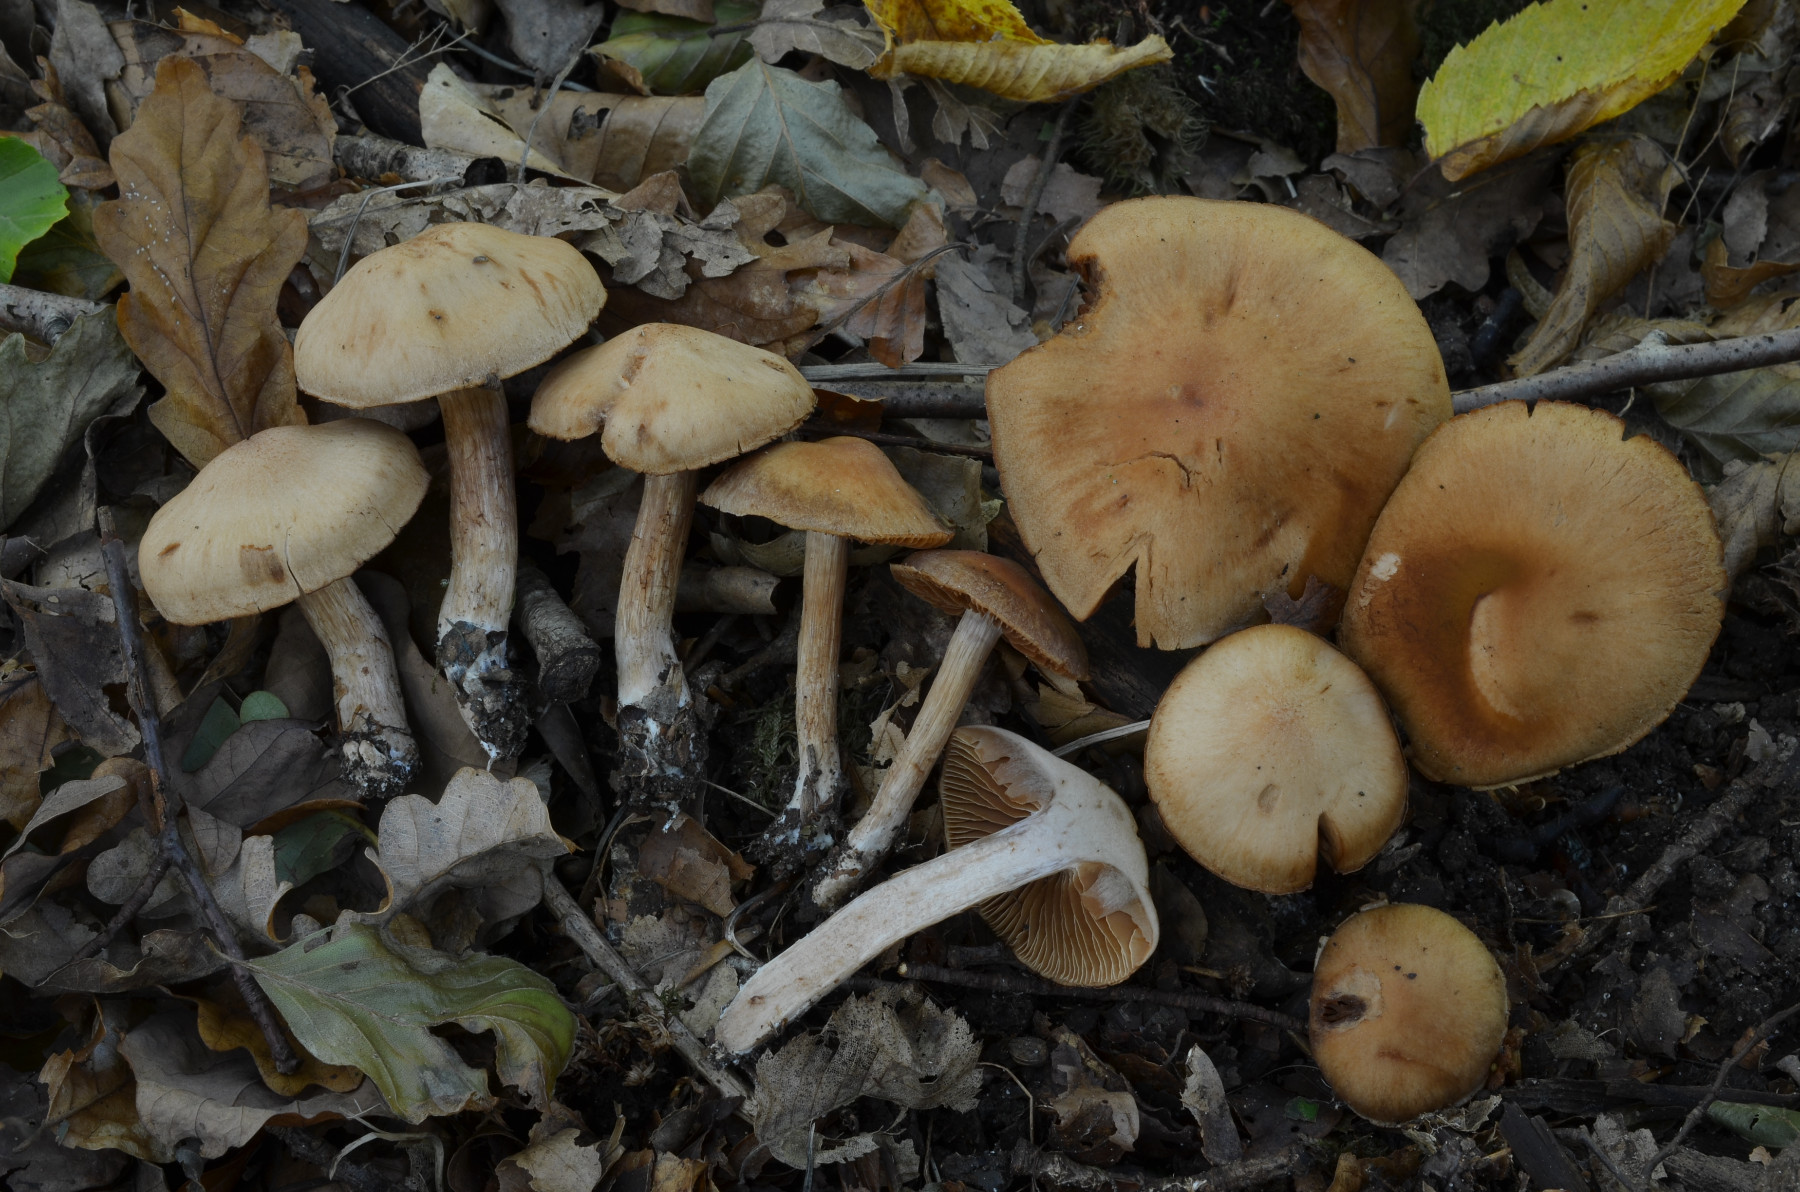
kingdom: Fungi
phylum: Basidiomycota
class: Agaricomycetes
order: Agaricales
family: Cortinariaceae
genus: Cortinarius
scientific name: Cortinarius
